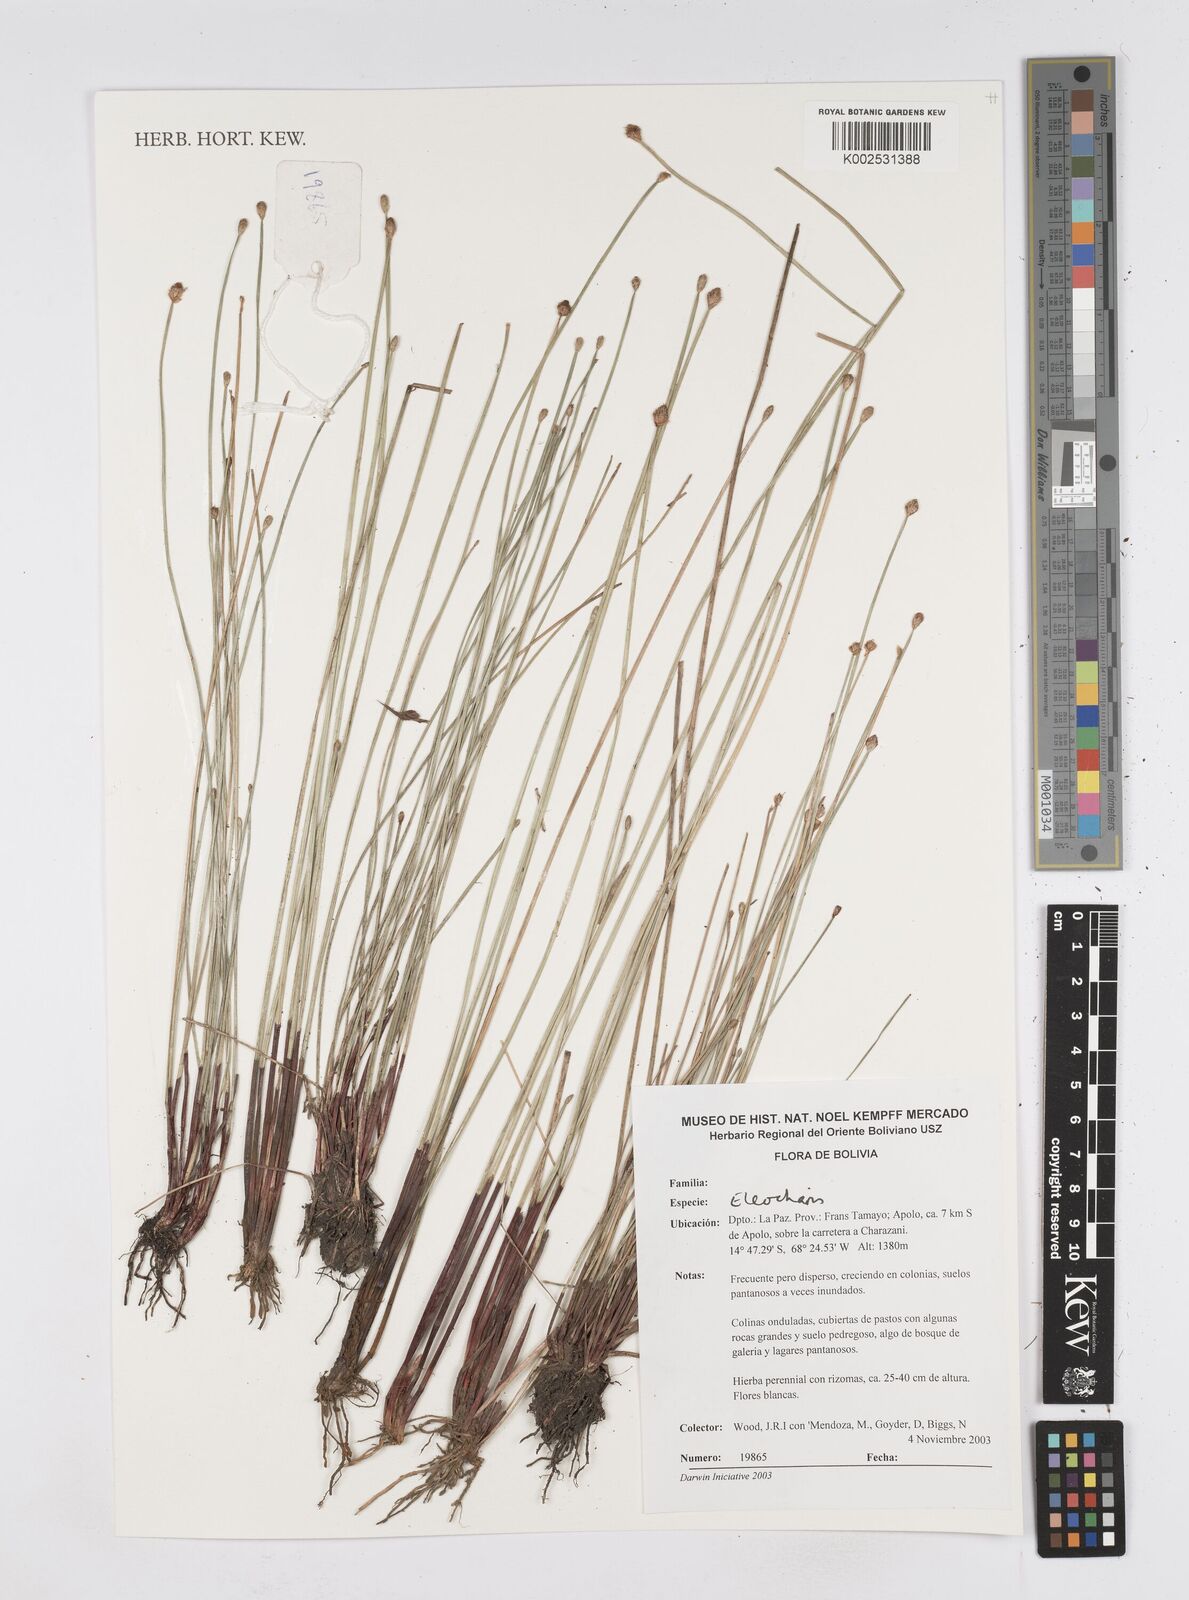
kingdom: Plantae
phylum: Tracheophyta
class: Liliopsida
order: Poales
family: Cyperaceae
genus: Eleocharis
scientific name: Eleocharis
